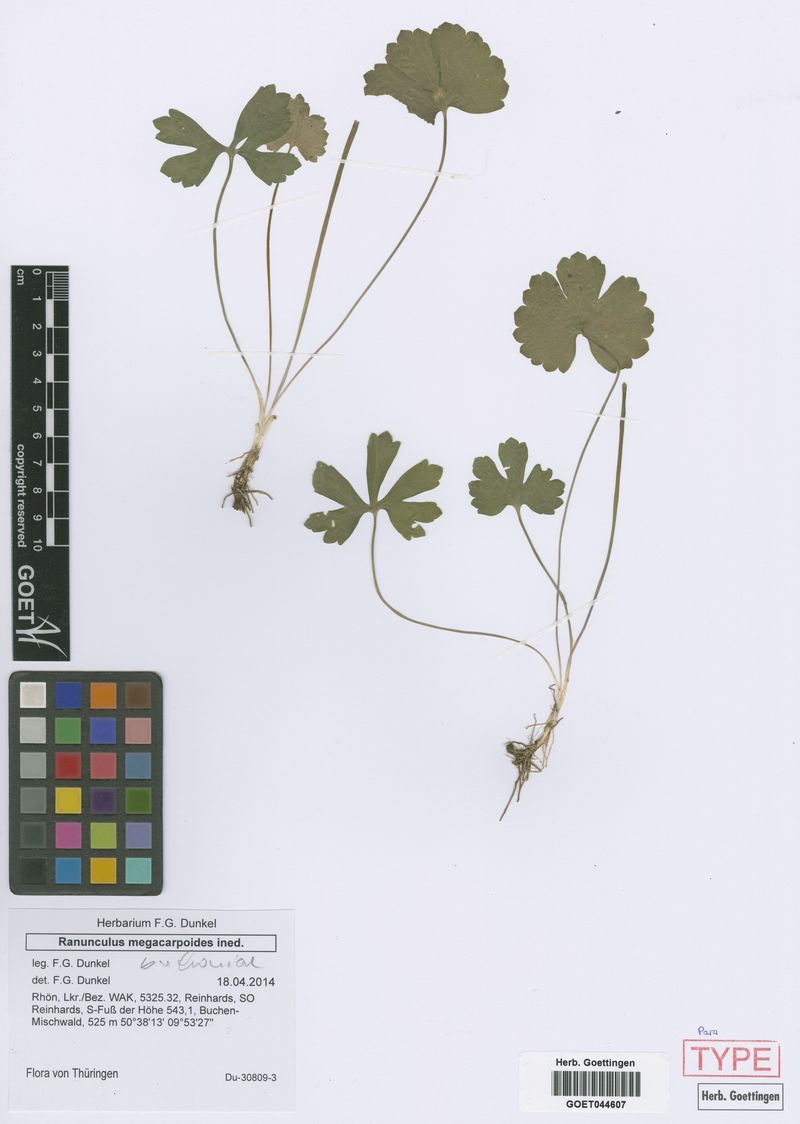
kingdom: Plantae
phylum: Tracheophyta
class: Magnoliopsida
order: Ranunculales
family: Ranunculaceae
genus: Ranunculus
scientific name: Ranunculus buchoniae
